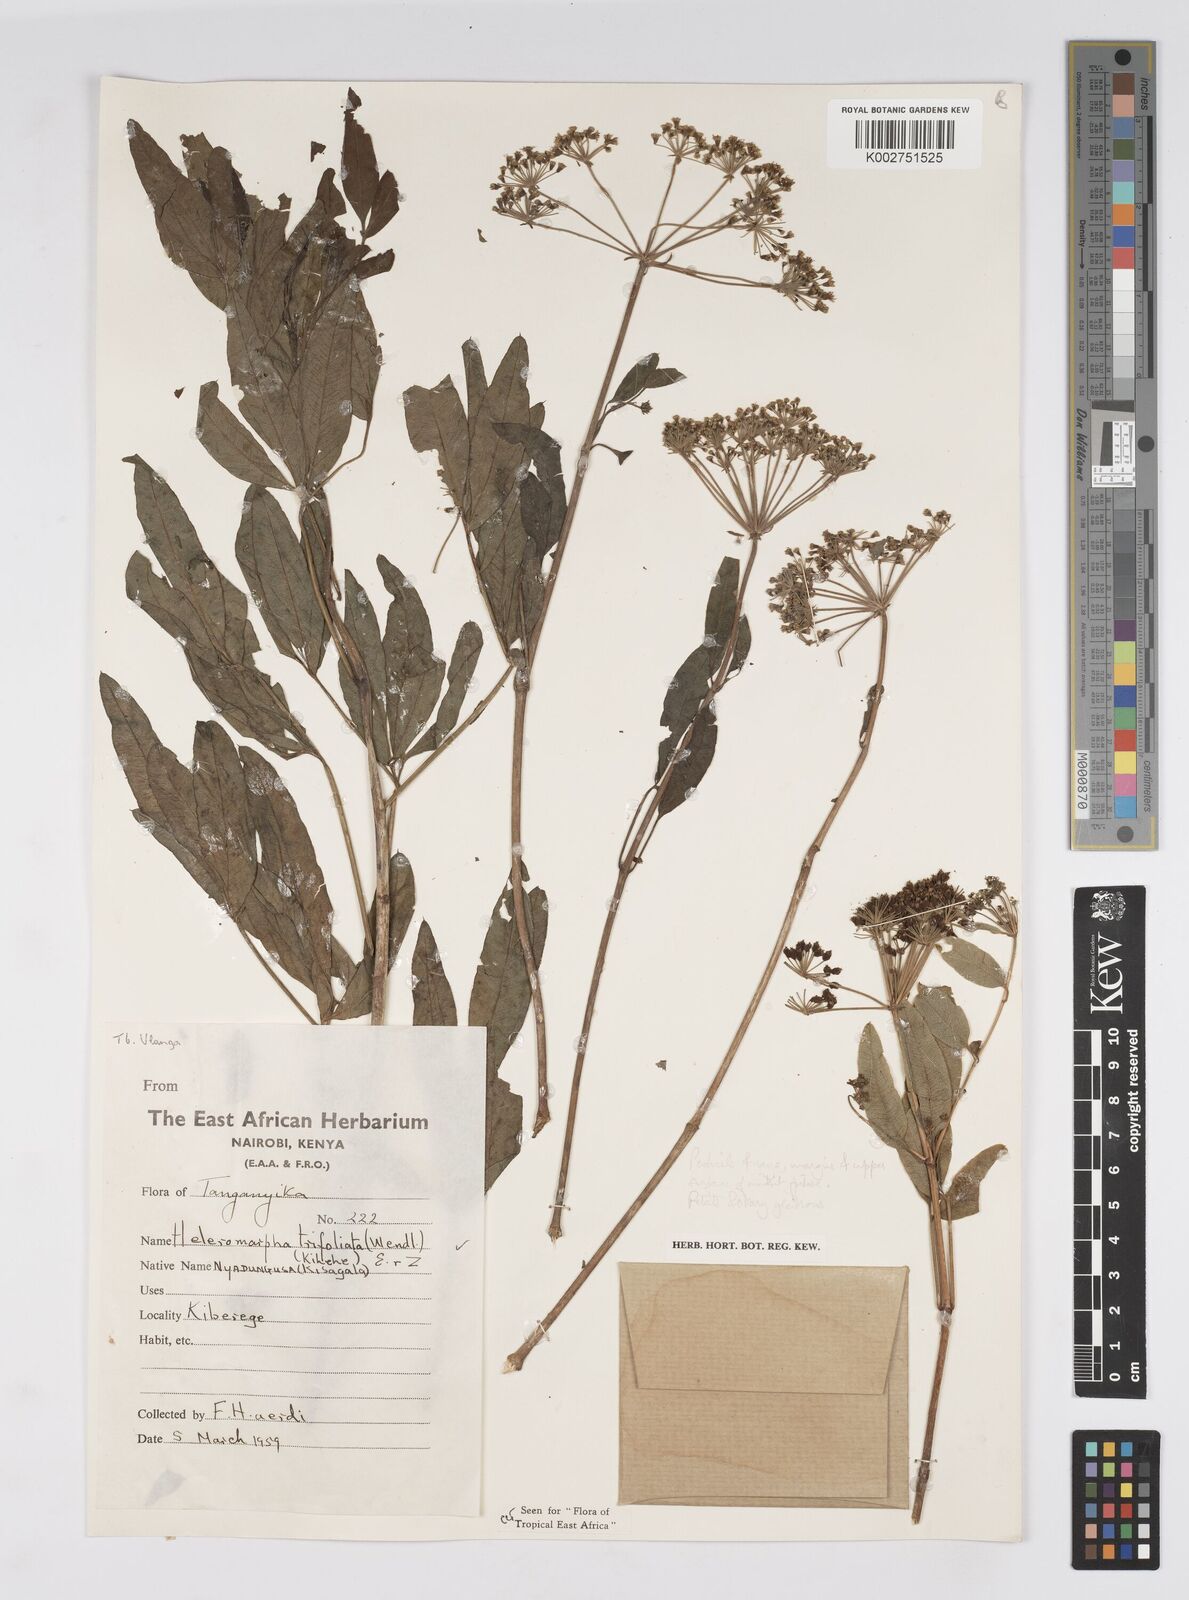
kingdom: Plantae
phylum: Tracheophyta
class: Magnoliopsida
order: Apiales
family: Apiaceae
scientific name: Apiaceae
